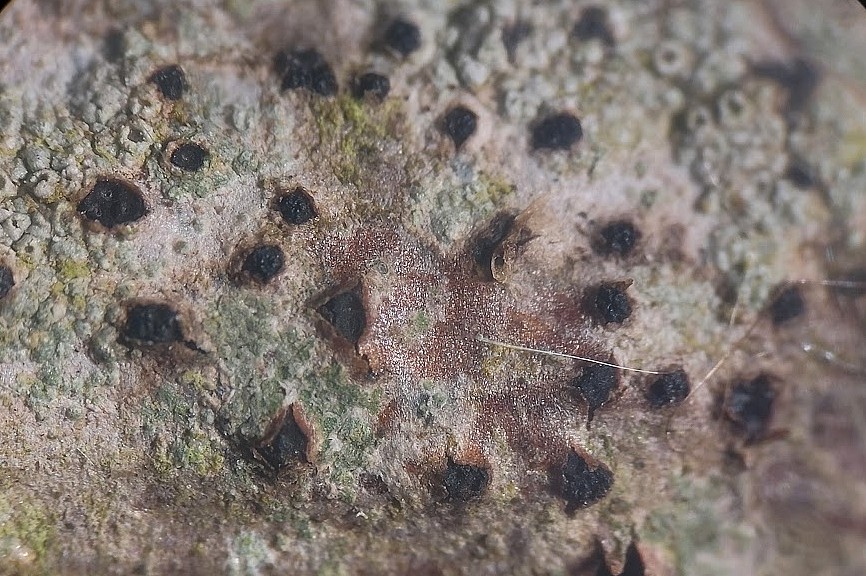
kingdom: Fungi
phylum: Ascomycota
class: Sordariomycetes
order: Xylariales
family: Diatrypaceae
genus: Quaternaria
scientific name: Quaternaria dissepta
